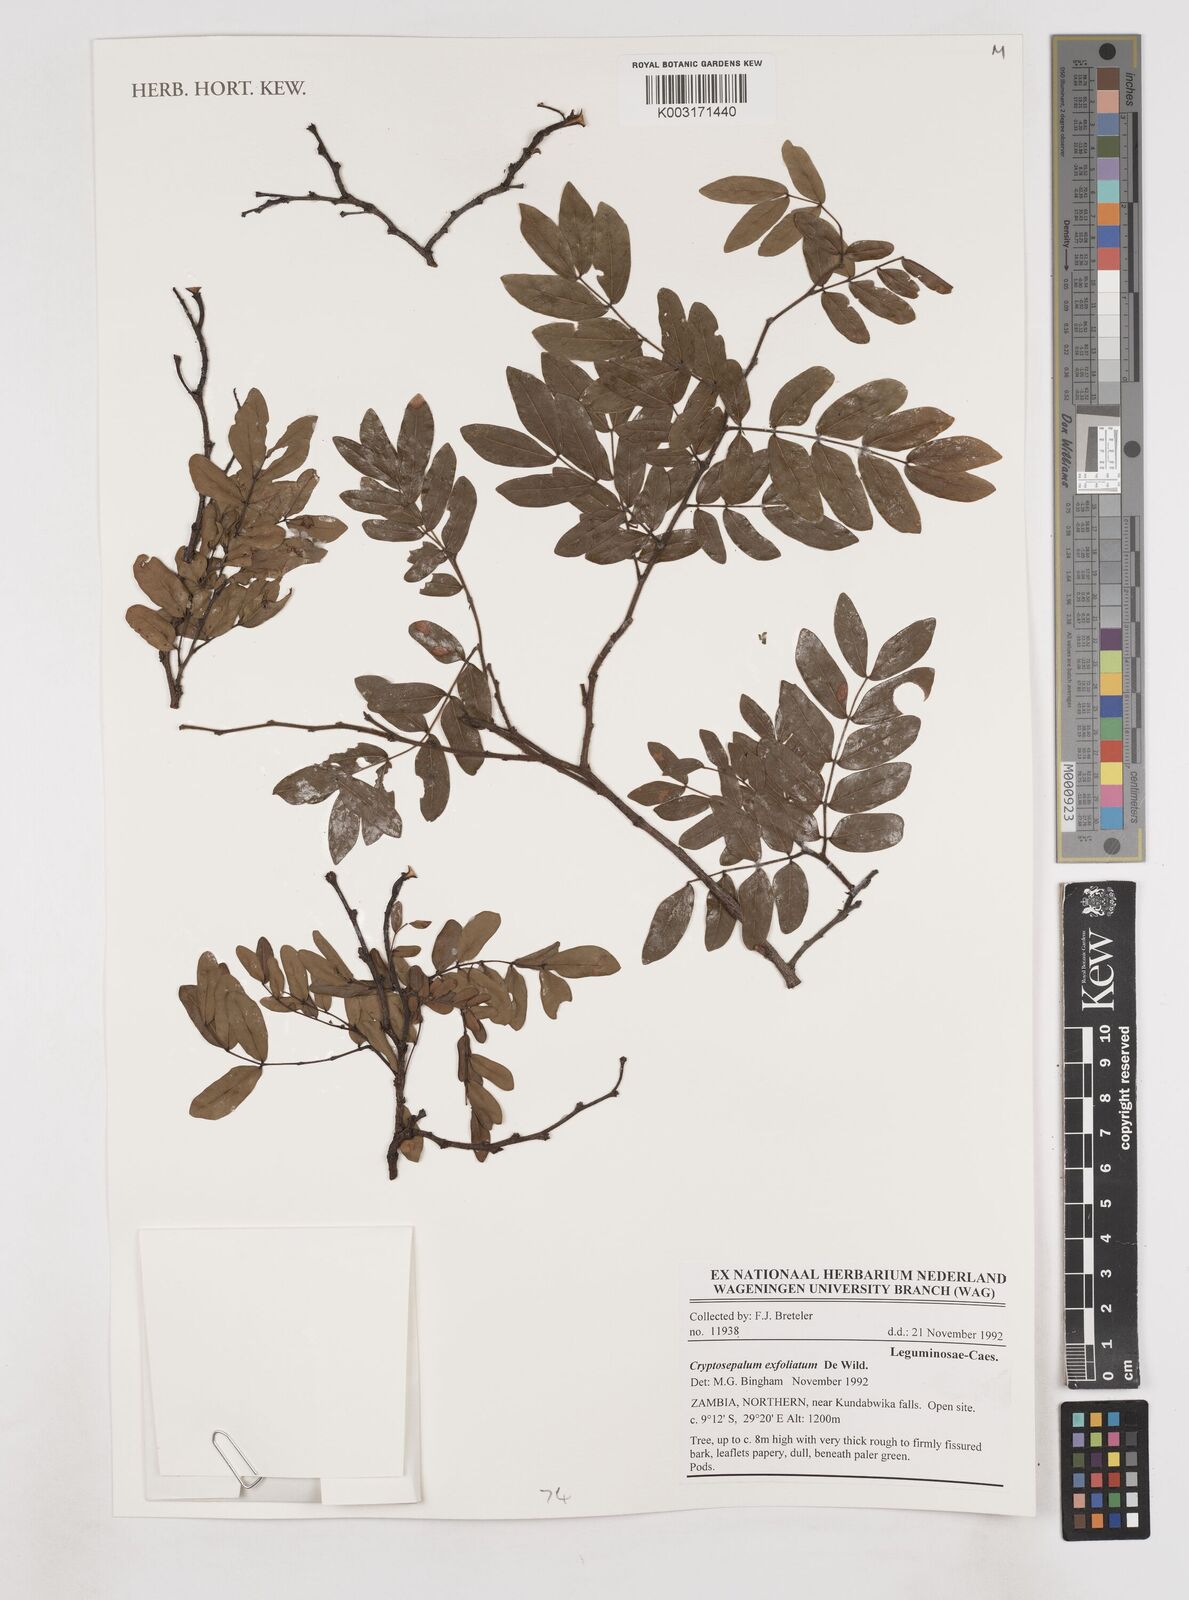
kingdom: Plantae
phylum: Tracheophyta
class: Magnoliopsida
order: Fabales
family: Fabaceae
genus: Cryptosepalum
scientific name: Cryptosepalum exfoliatum
